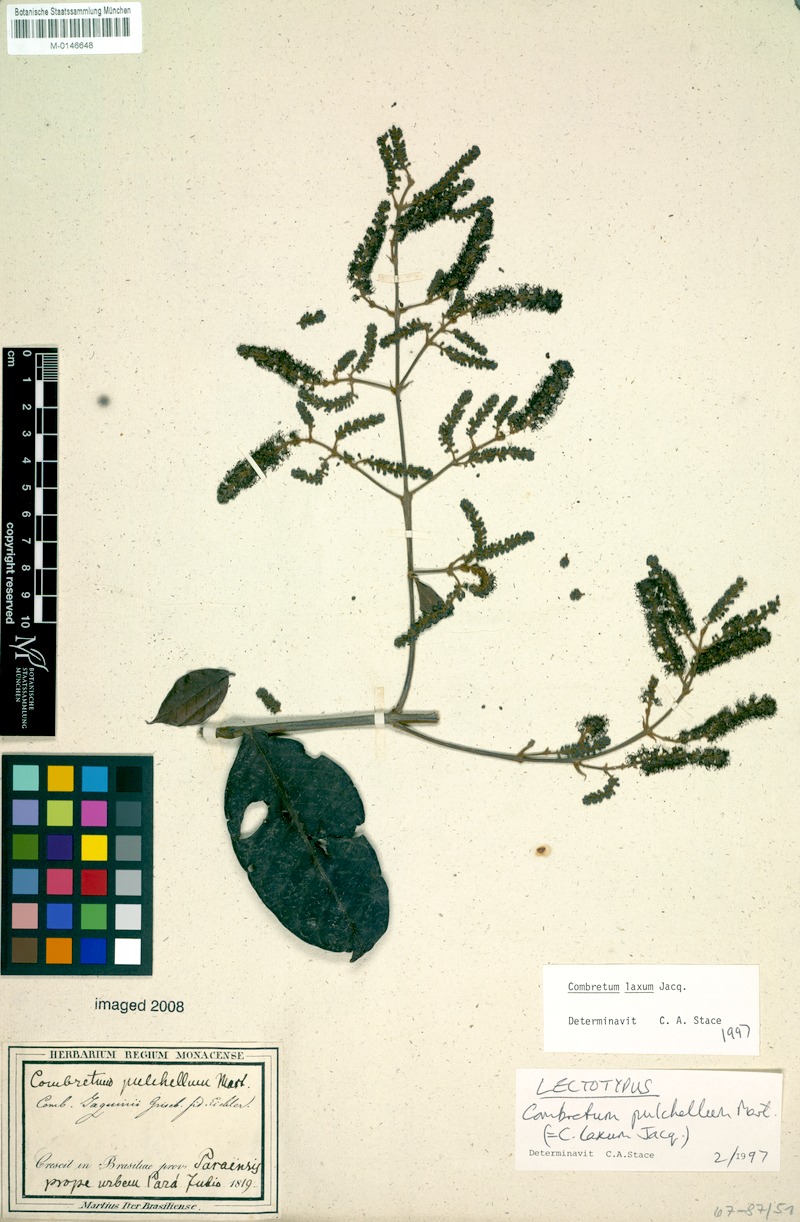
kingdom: Plantae
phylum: Tracheophyta
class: Magnoliopsida
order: Myrtales
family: Combretaceae
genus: Combretum
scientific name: Combretum laxum
